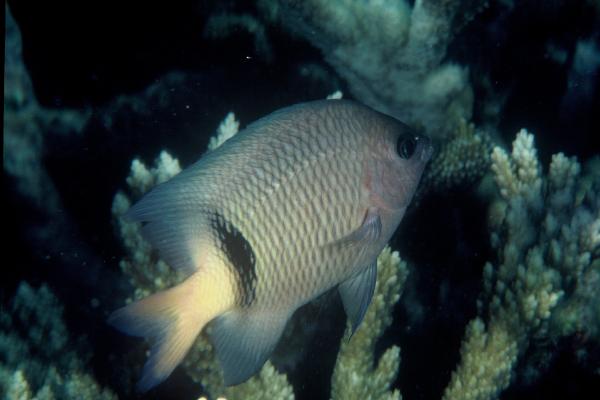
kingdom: Animalia
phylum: Chordata
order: Perciformes
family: Pomacentridae
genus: Plectroglyphidodon
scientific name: Plectroglyphidodon dickii
